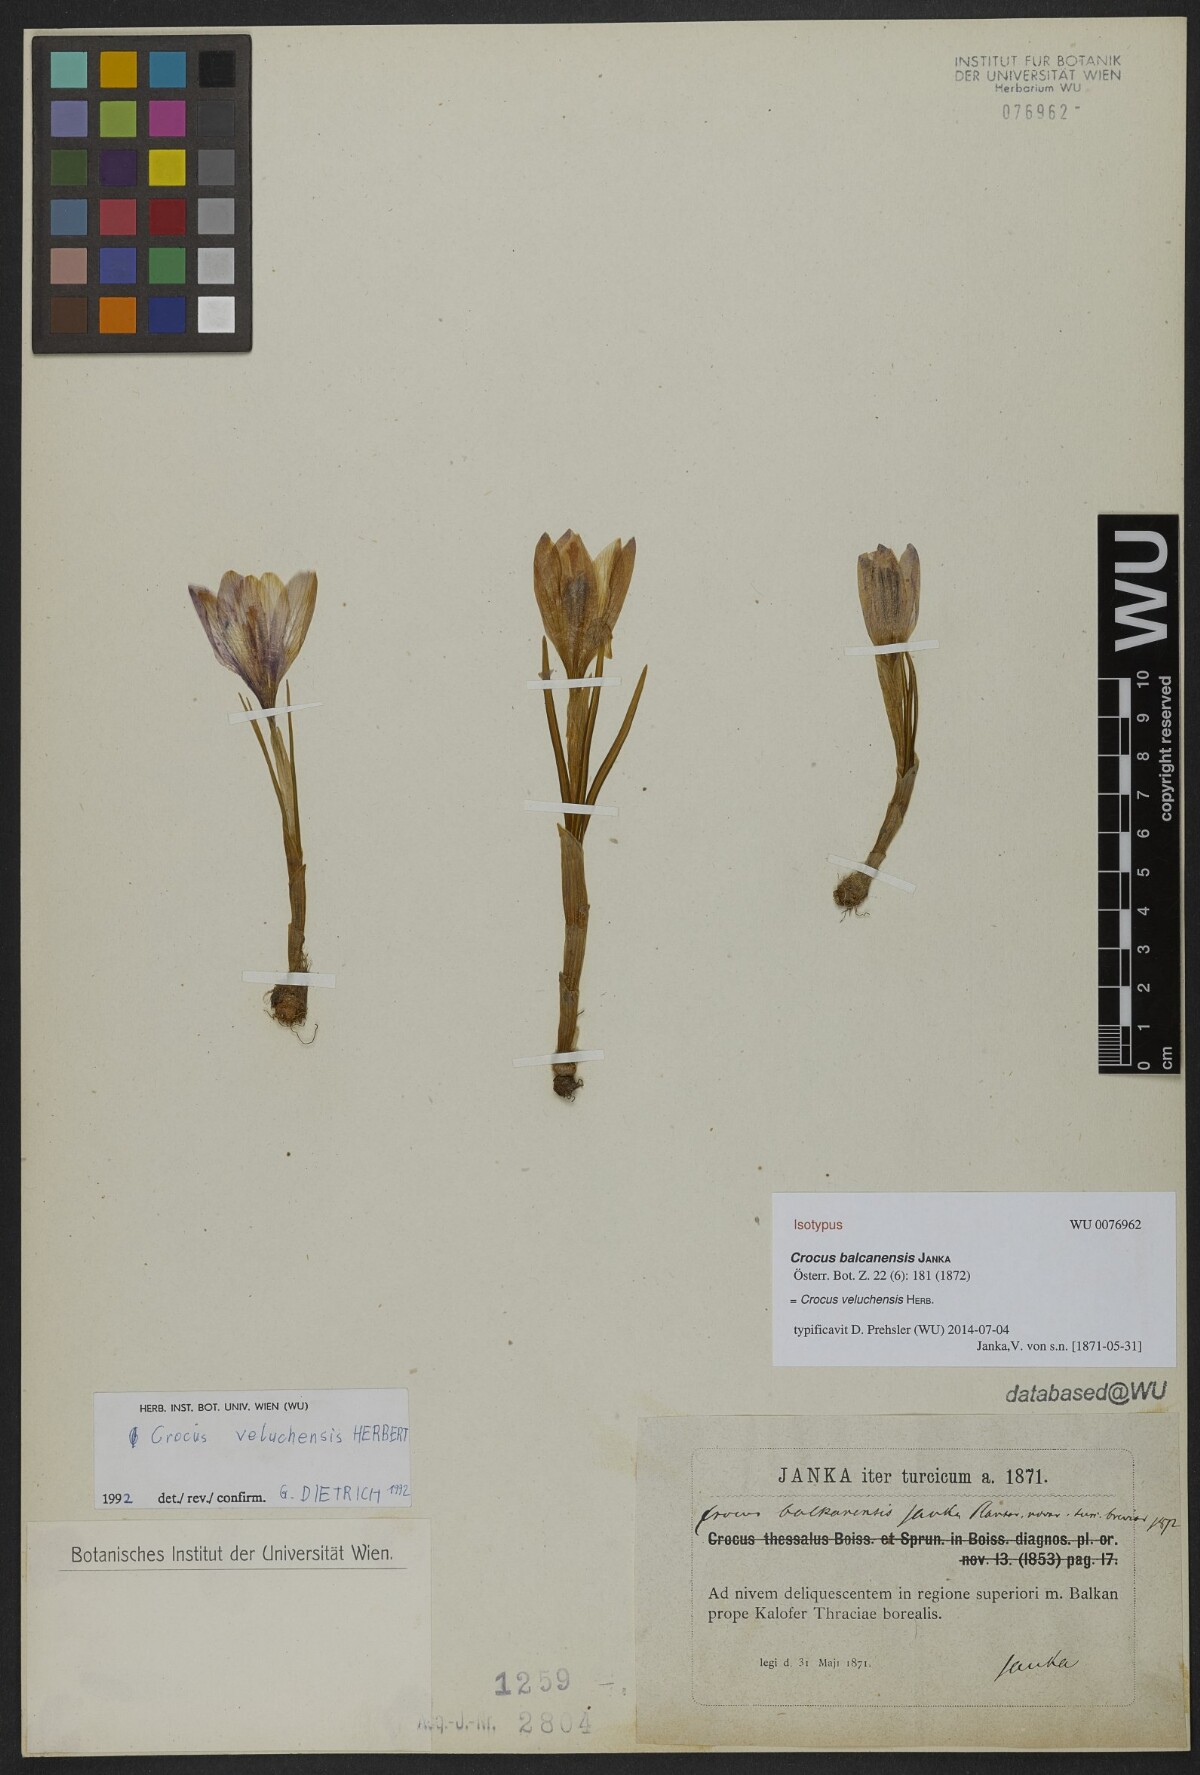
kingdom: Plantae
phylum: Tracheophyta
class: Liliopsida
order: Asparagales
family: Iridaceae
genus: Crocus
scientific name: Crocus veluchensis
